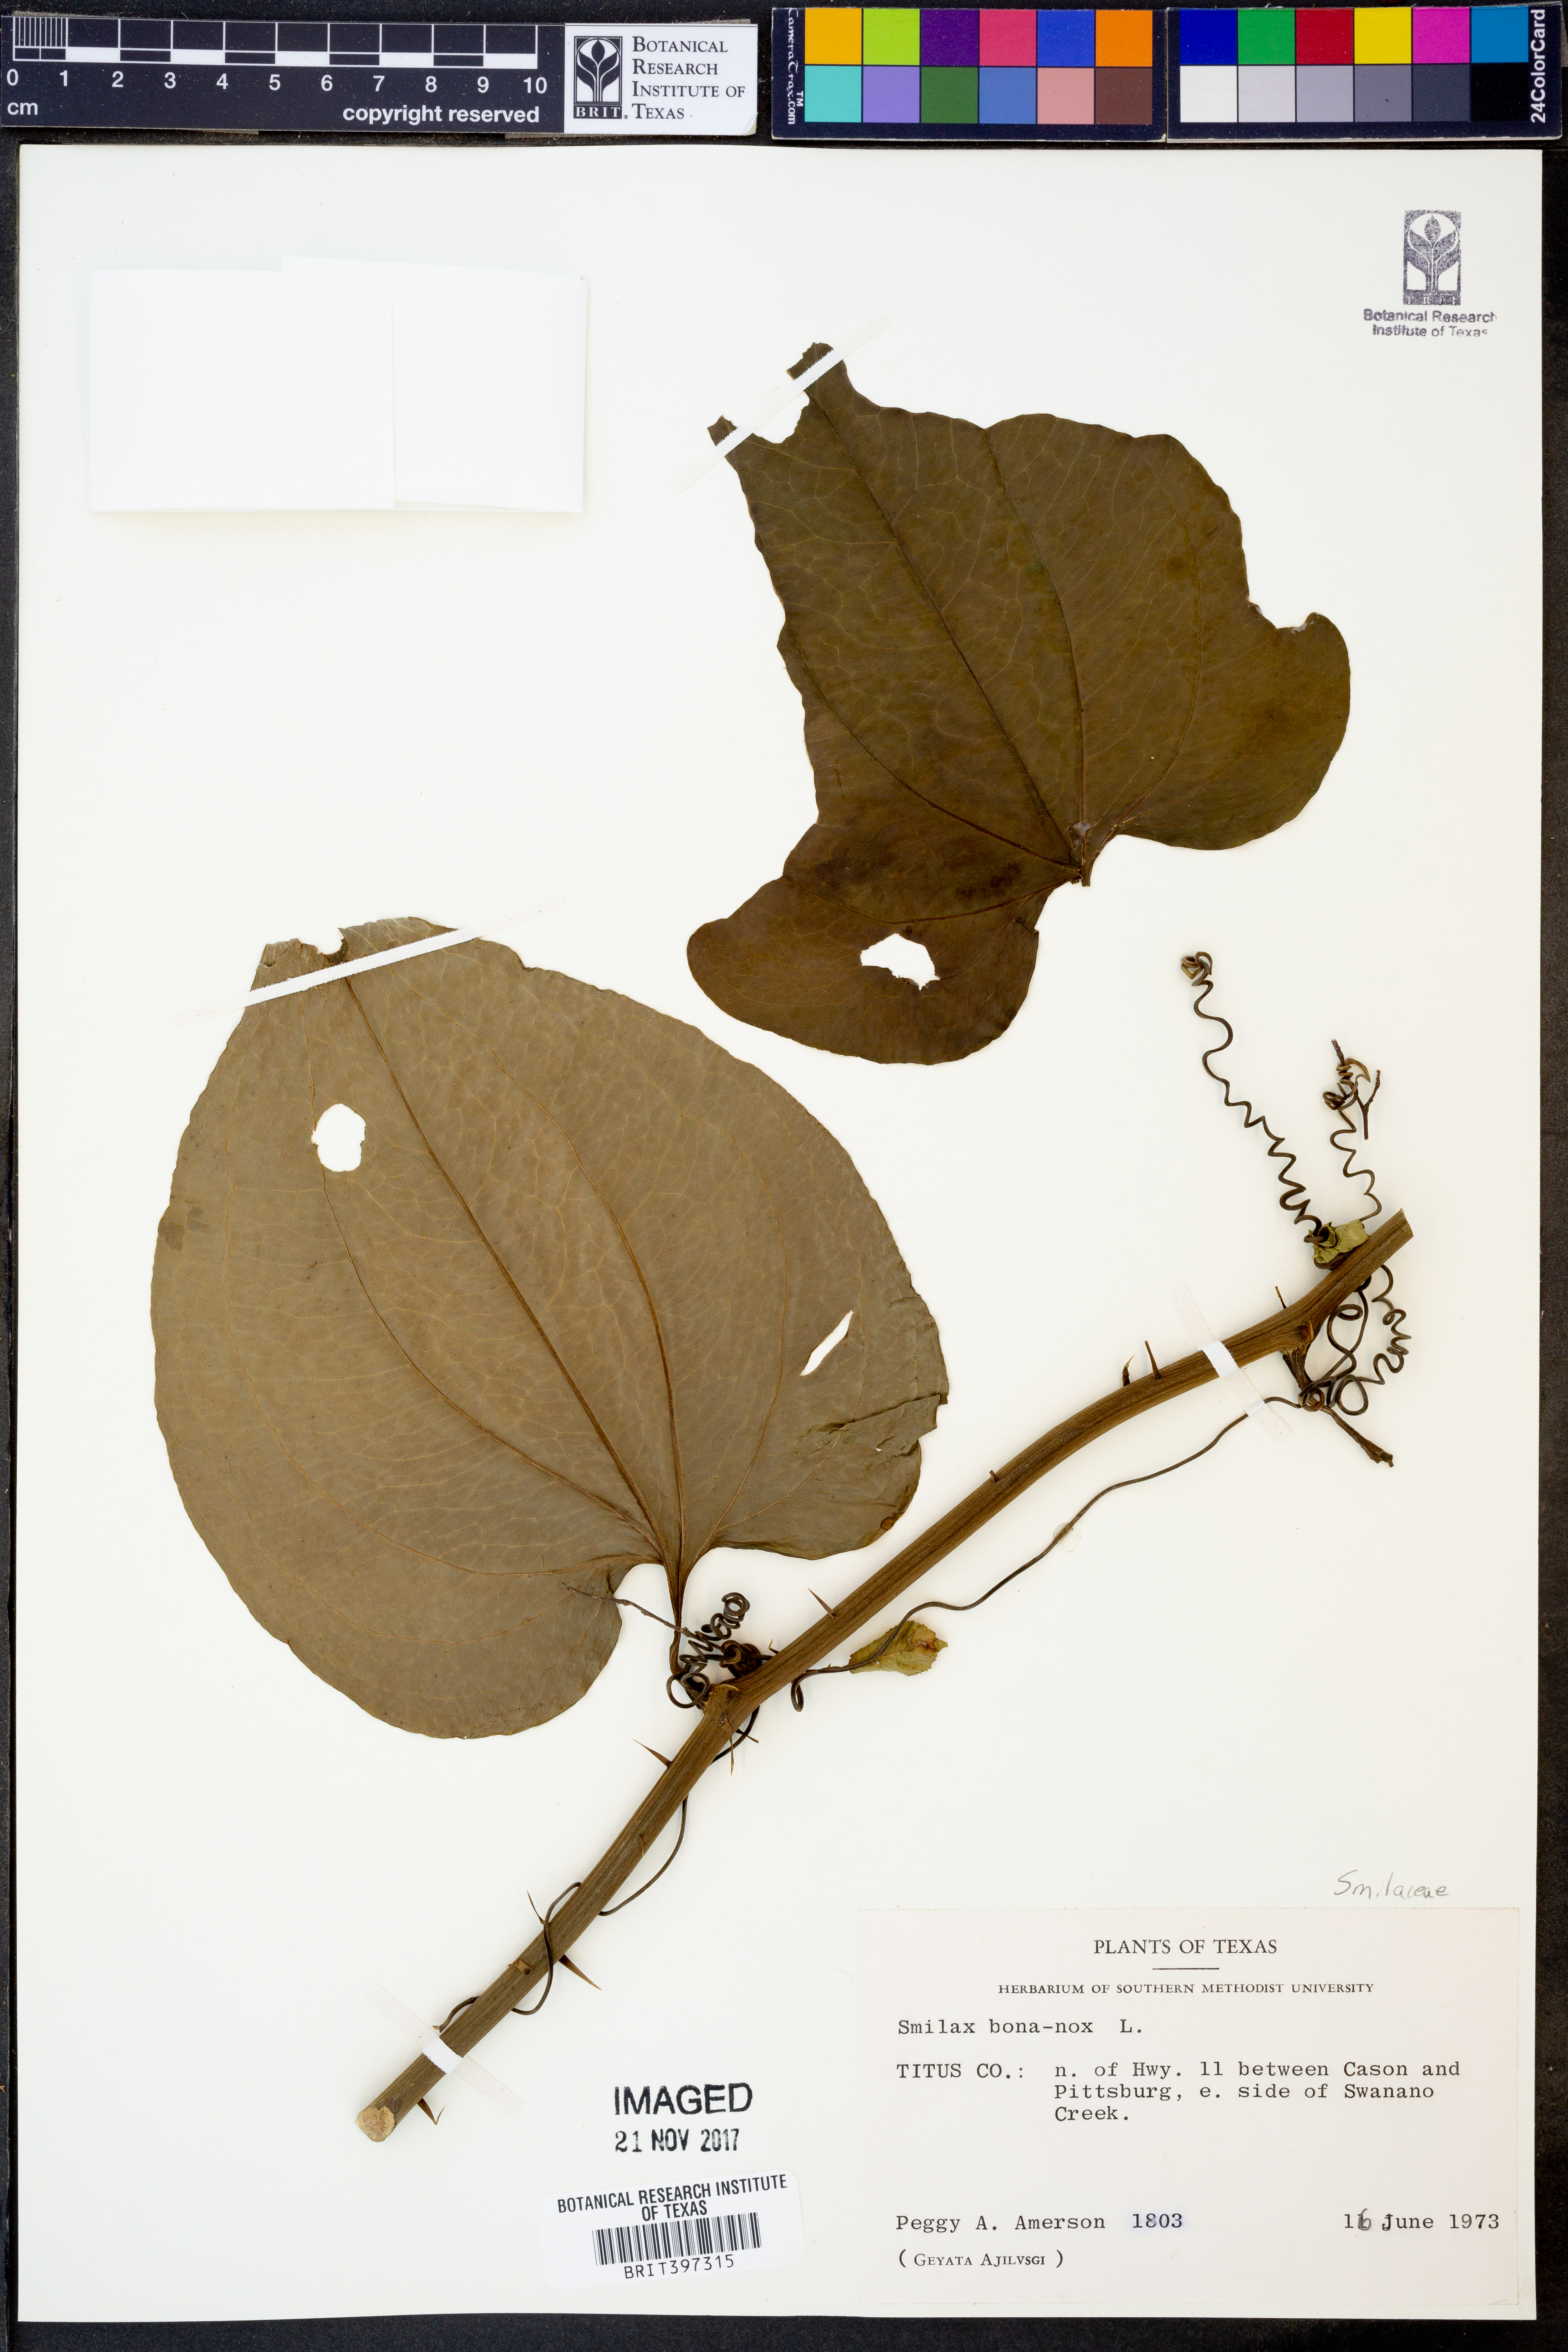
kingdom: Plantae
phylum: Tracheophyta
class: Liliopsida
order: Liliales
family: Smilacaceae
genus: Smilax
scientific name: Smilax bona-nox
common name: Catbrier
